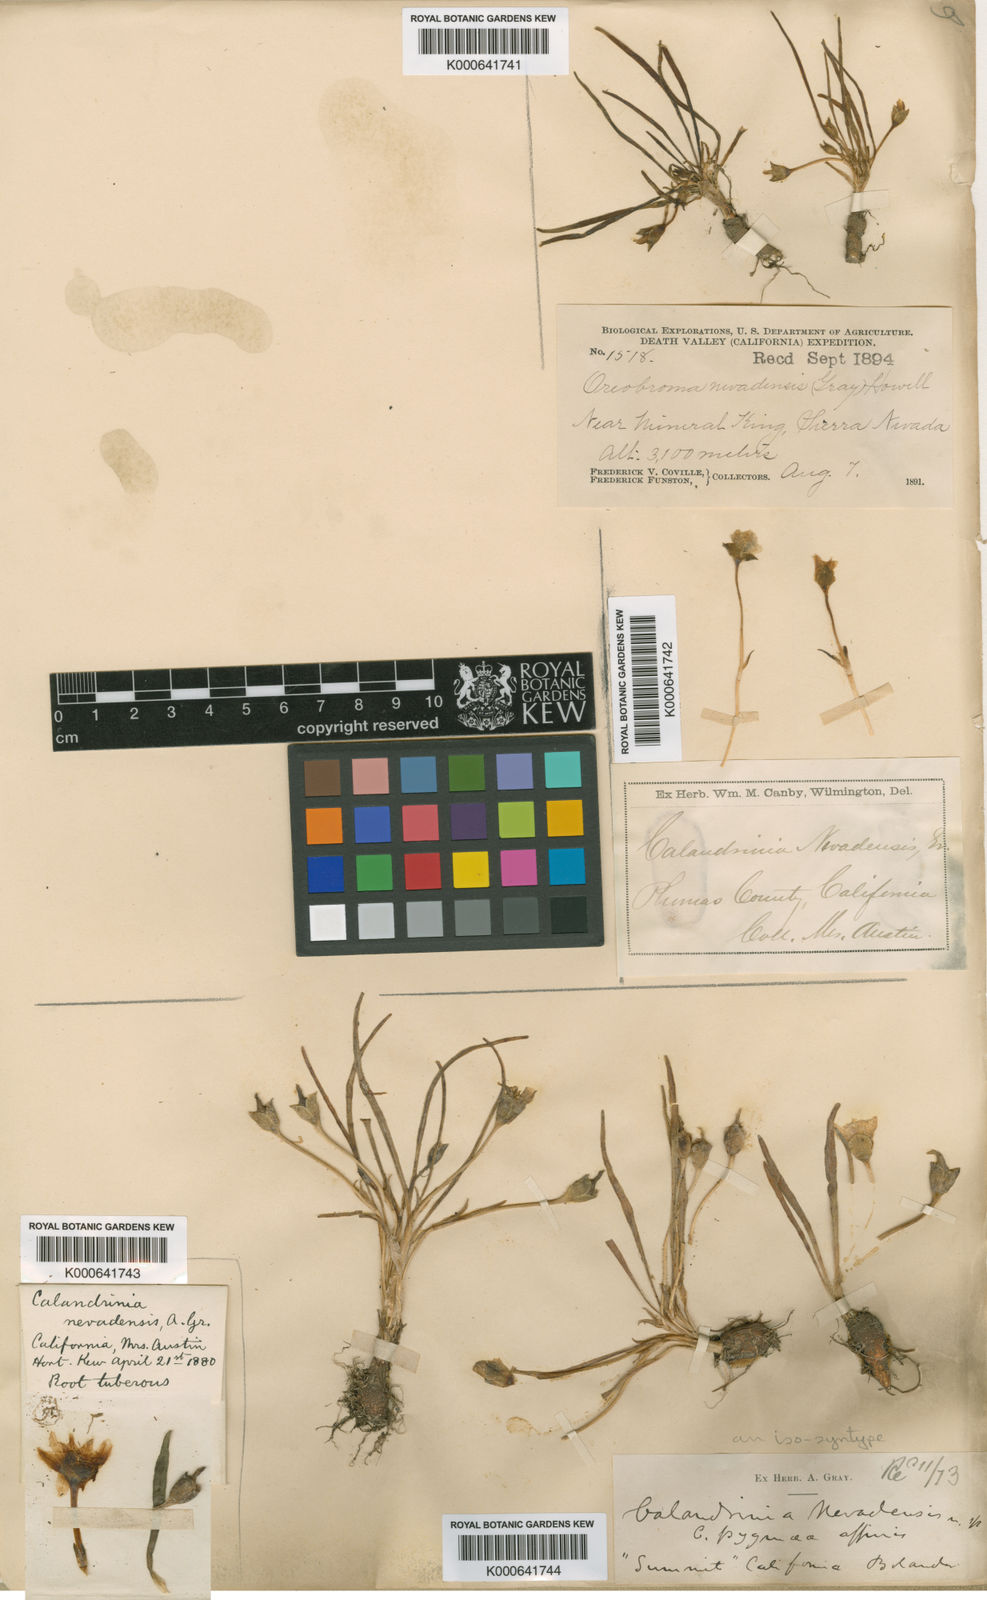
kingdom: Plantae
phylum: Tracheophyta
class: Magnoliopsida
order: Caryophyllales
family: Montiaceae
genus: Lewisia
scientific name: Lewisia nevadensis
